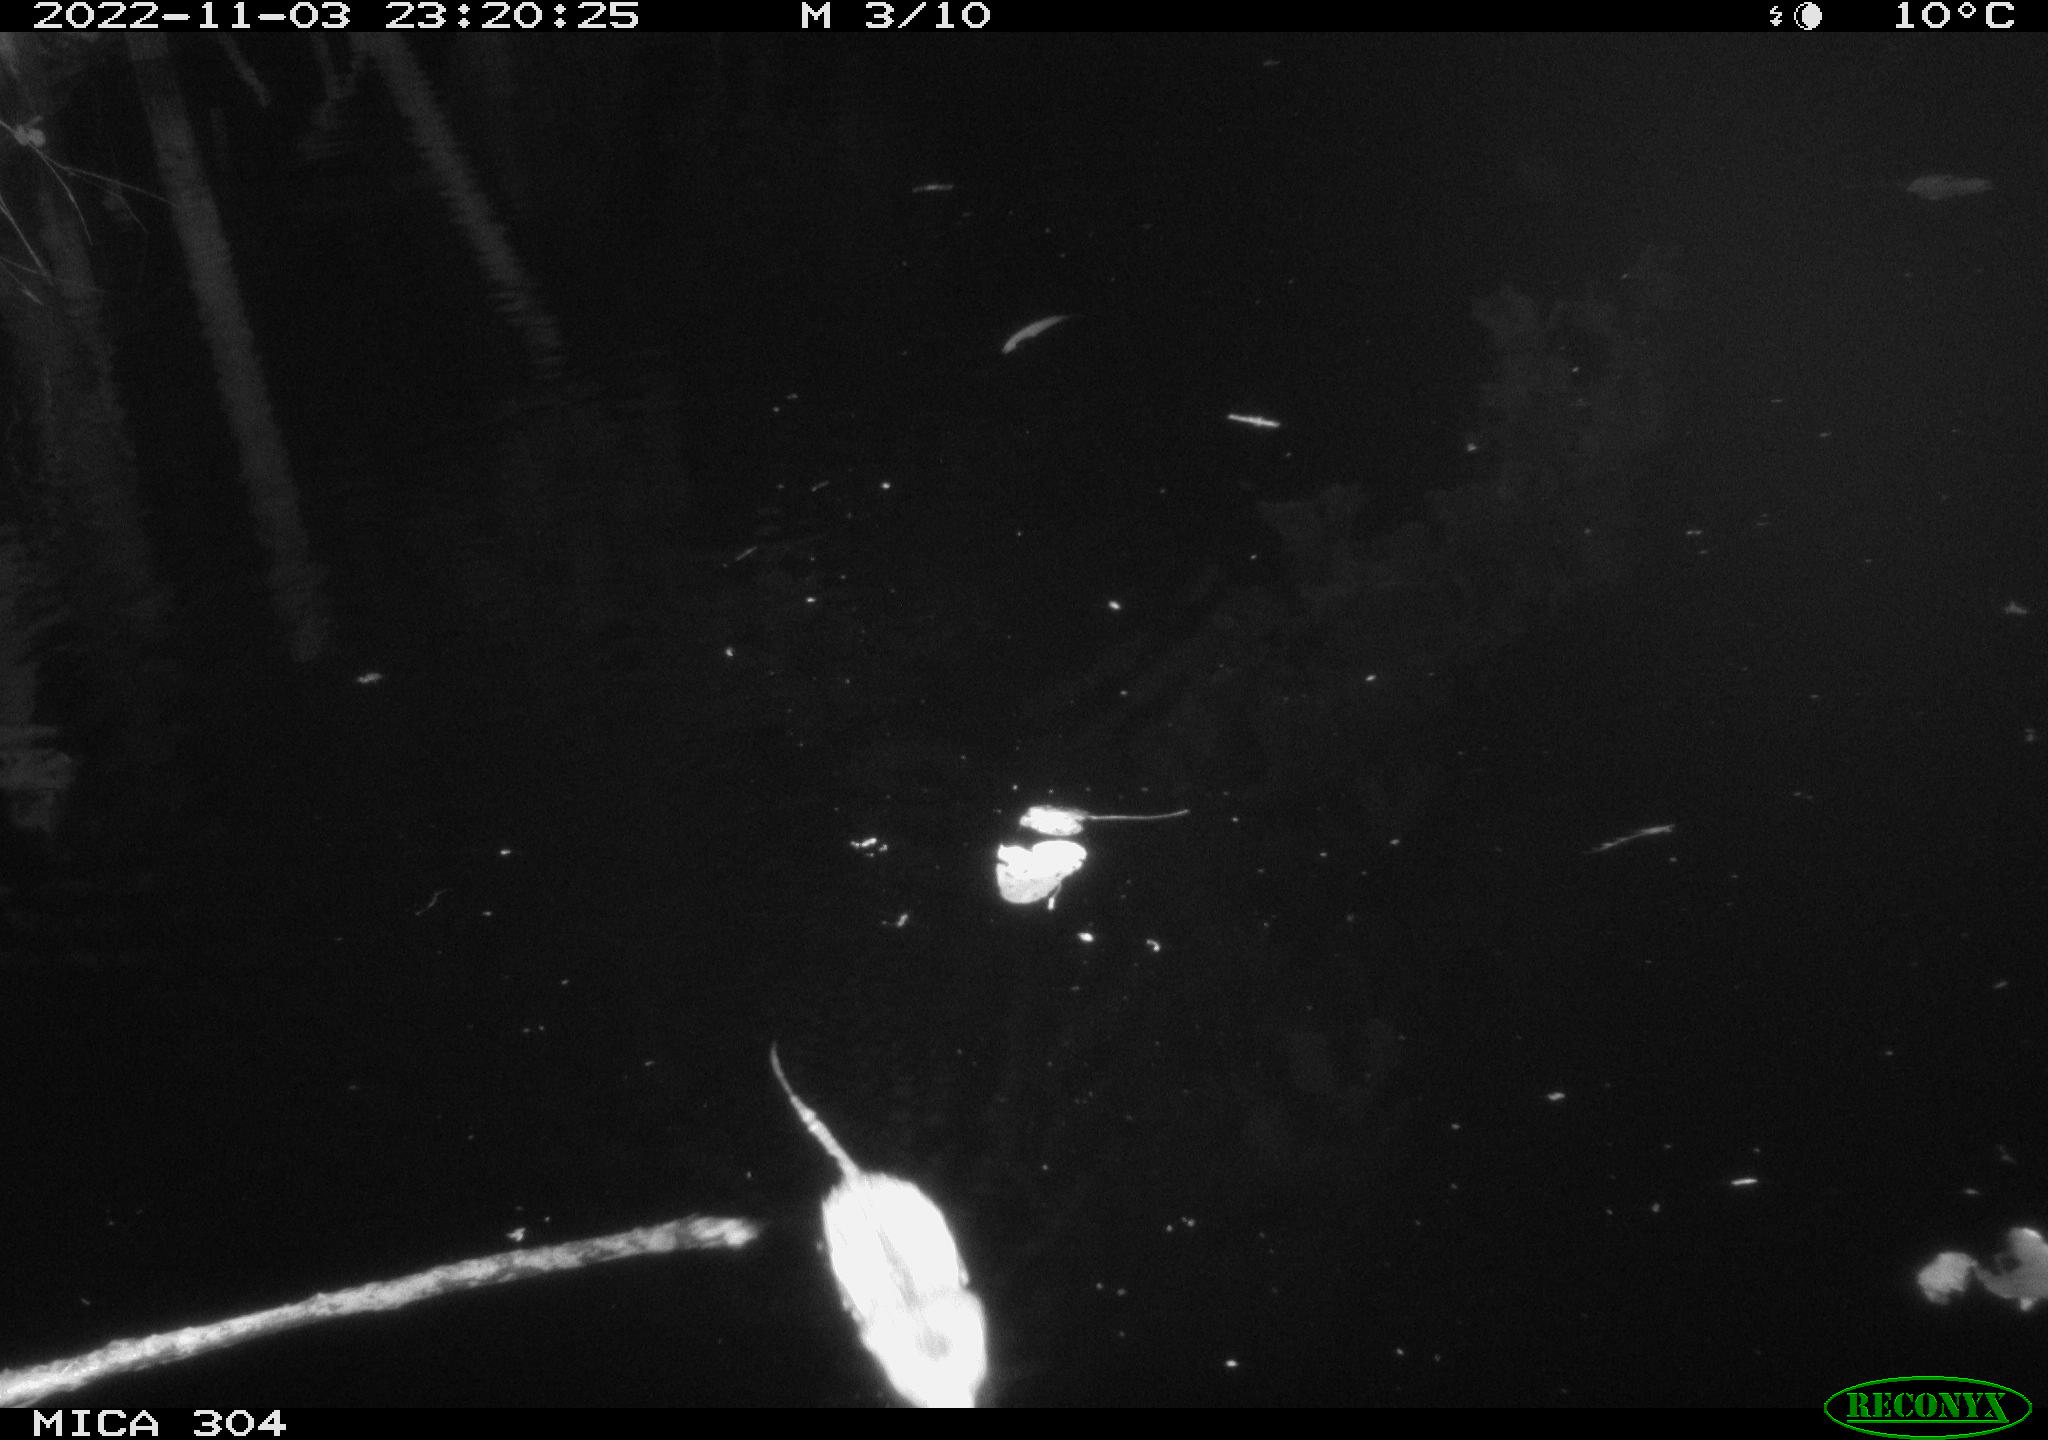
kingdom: Animalia
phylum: Chordata
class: Mammalia
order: Rodentia
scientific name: Rodentia
